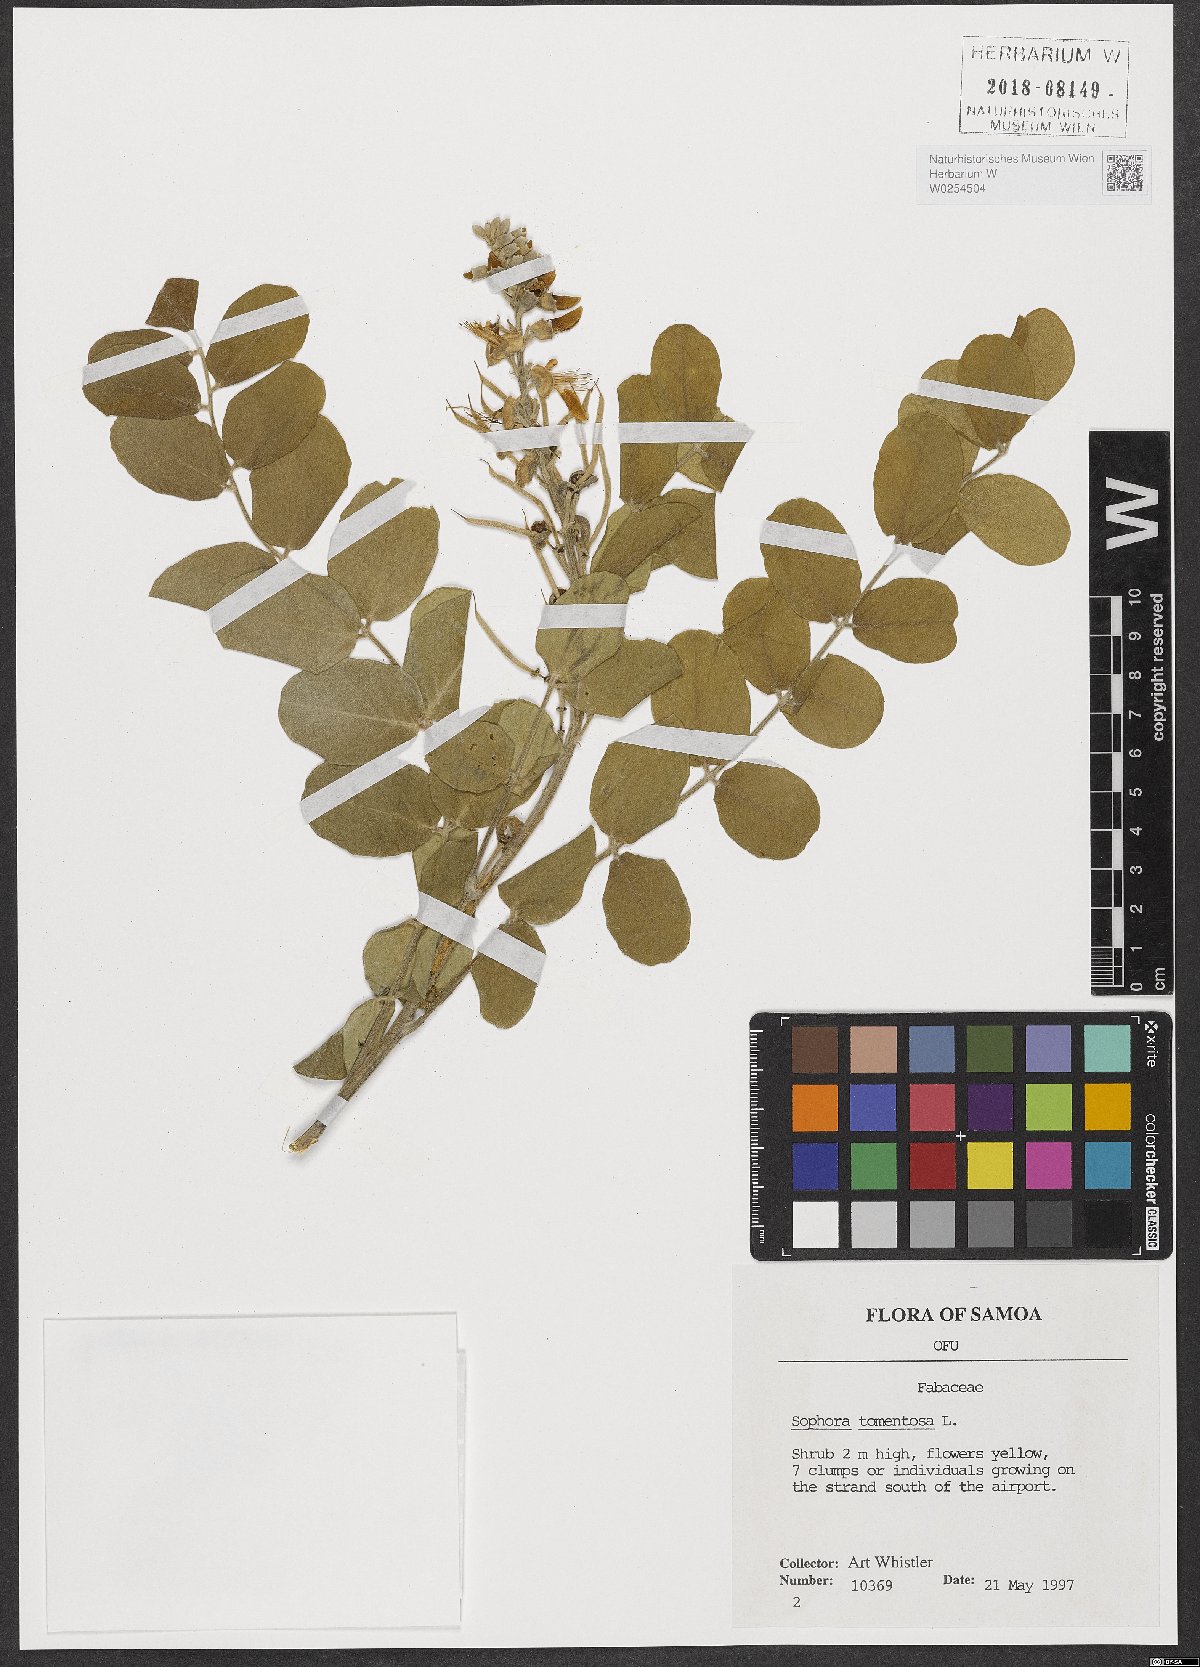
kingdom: Plantae
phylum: Tracheophyta
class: Magnoliopsida
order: Fabales
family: Fabaceae
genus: Sophora
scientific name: Sophora tomentosa
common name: Yellow necklacepod
